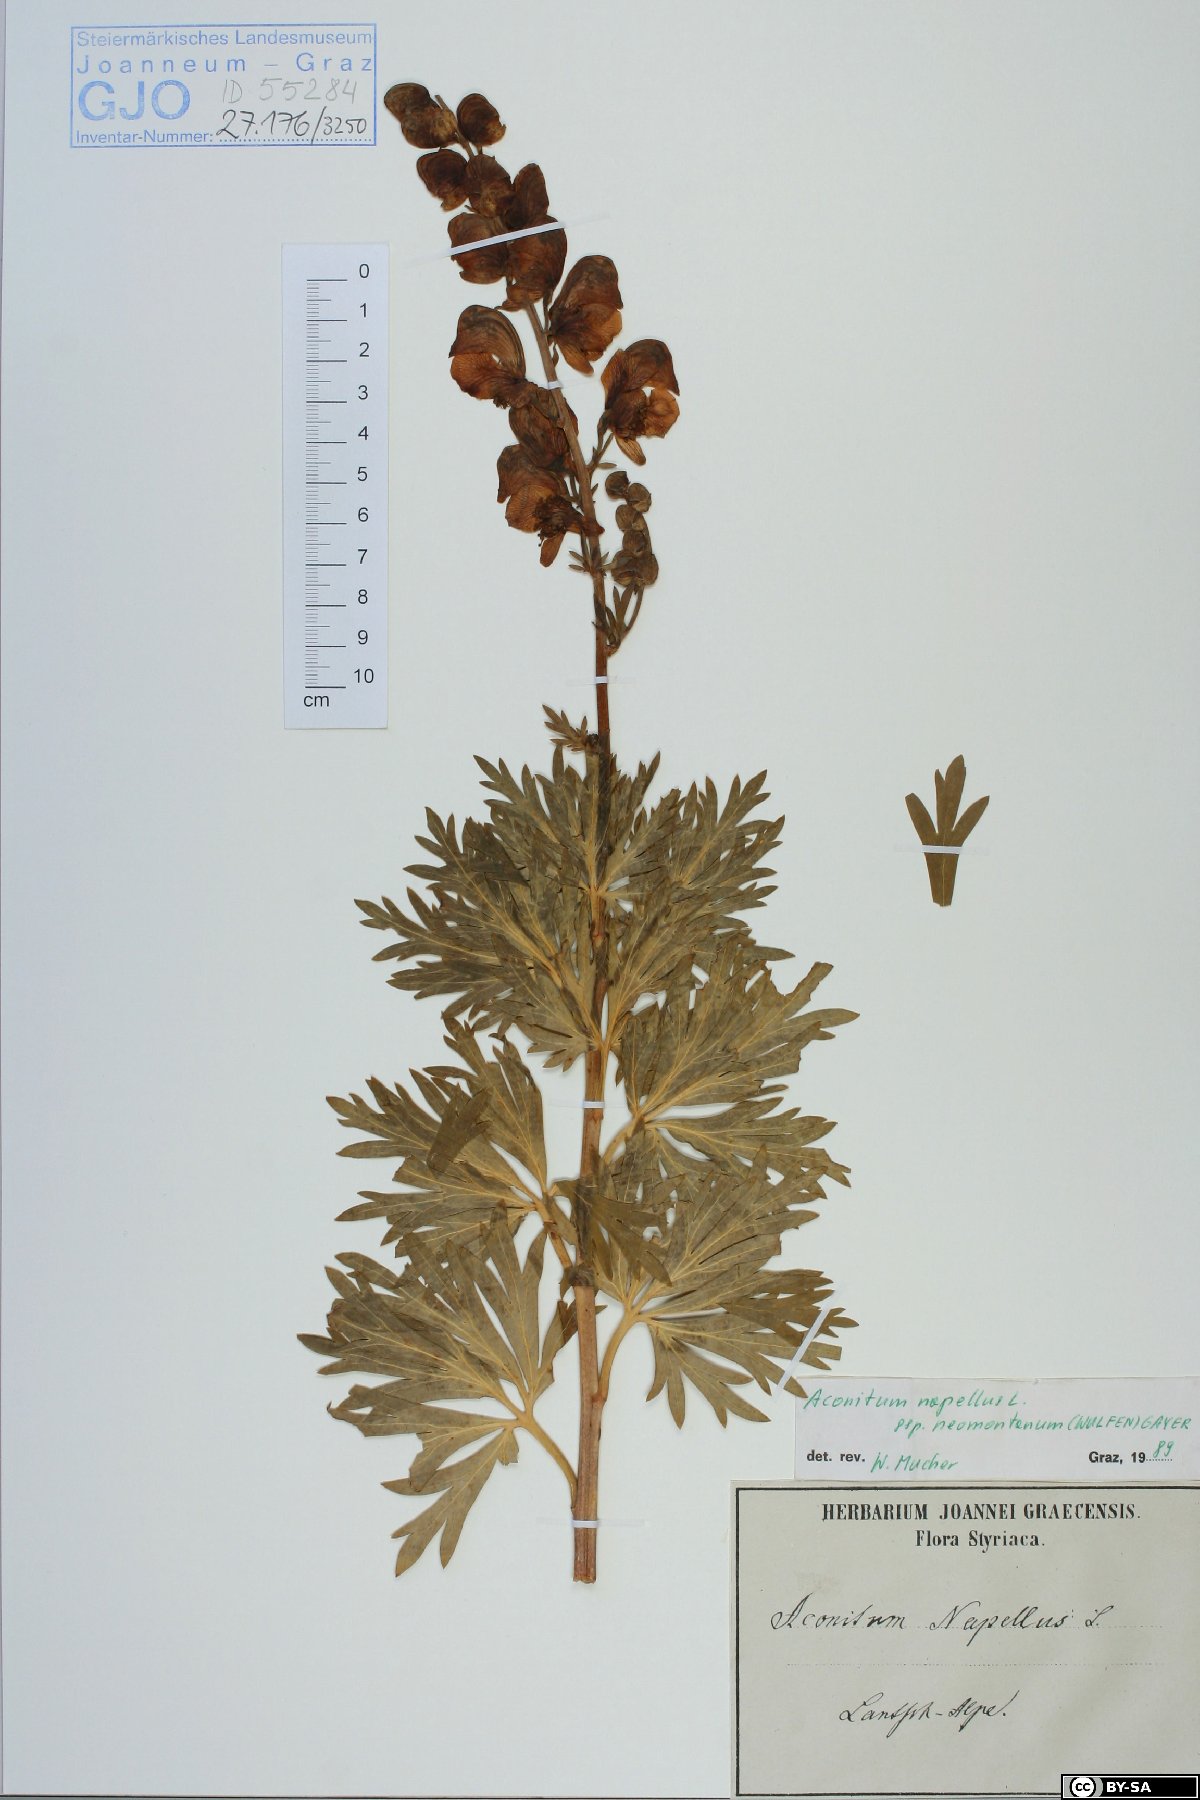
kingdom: Plantae
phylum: Tracheophyta
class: Magnoliopsida
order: Ranunculales
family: Ranunculaceae
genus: Aconitum
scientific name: Aconitum napellus
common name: Garden monkshood
